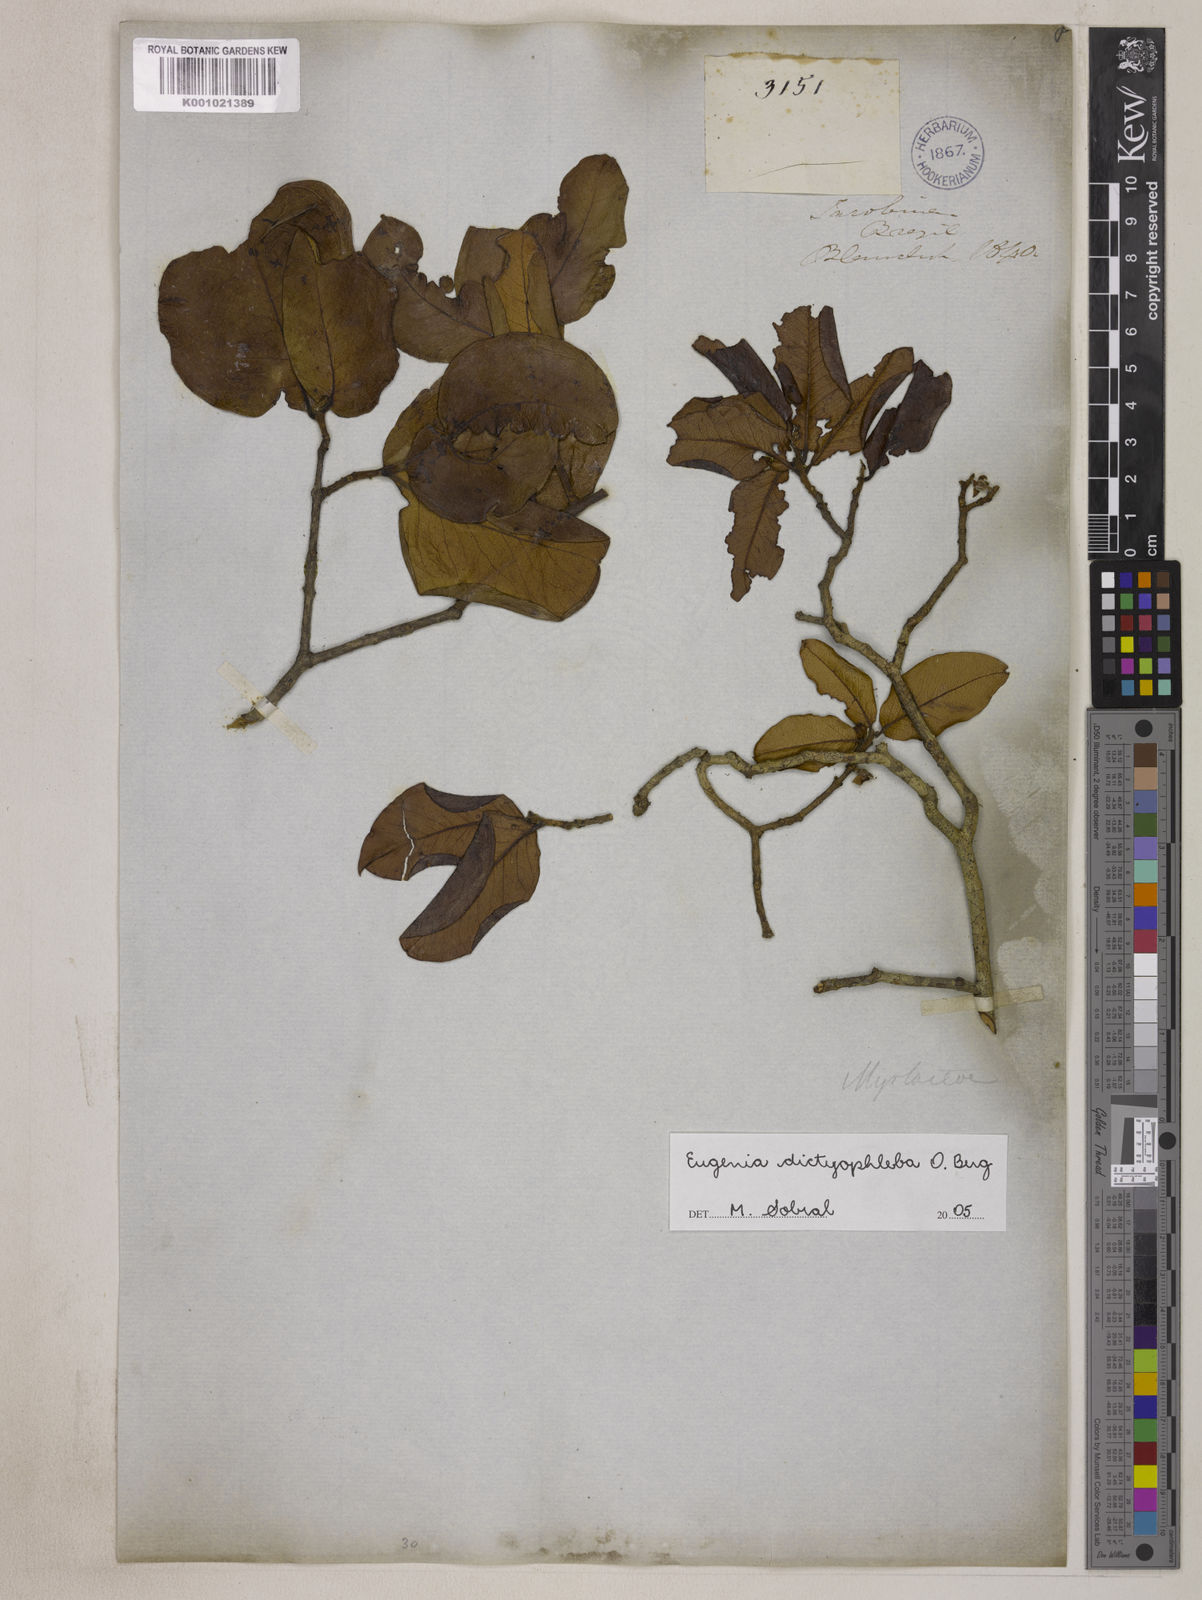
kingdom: Plantae
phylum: Tracheophyta
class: Magnoliopsida
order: Myrtales
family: Myrtaceae
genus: Eugenia
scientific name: Eugenia dictyophleba
